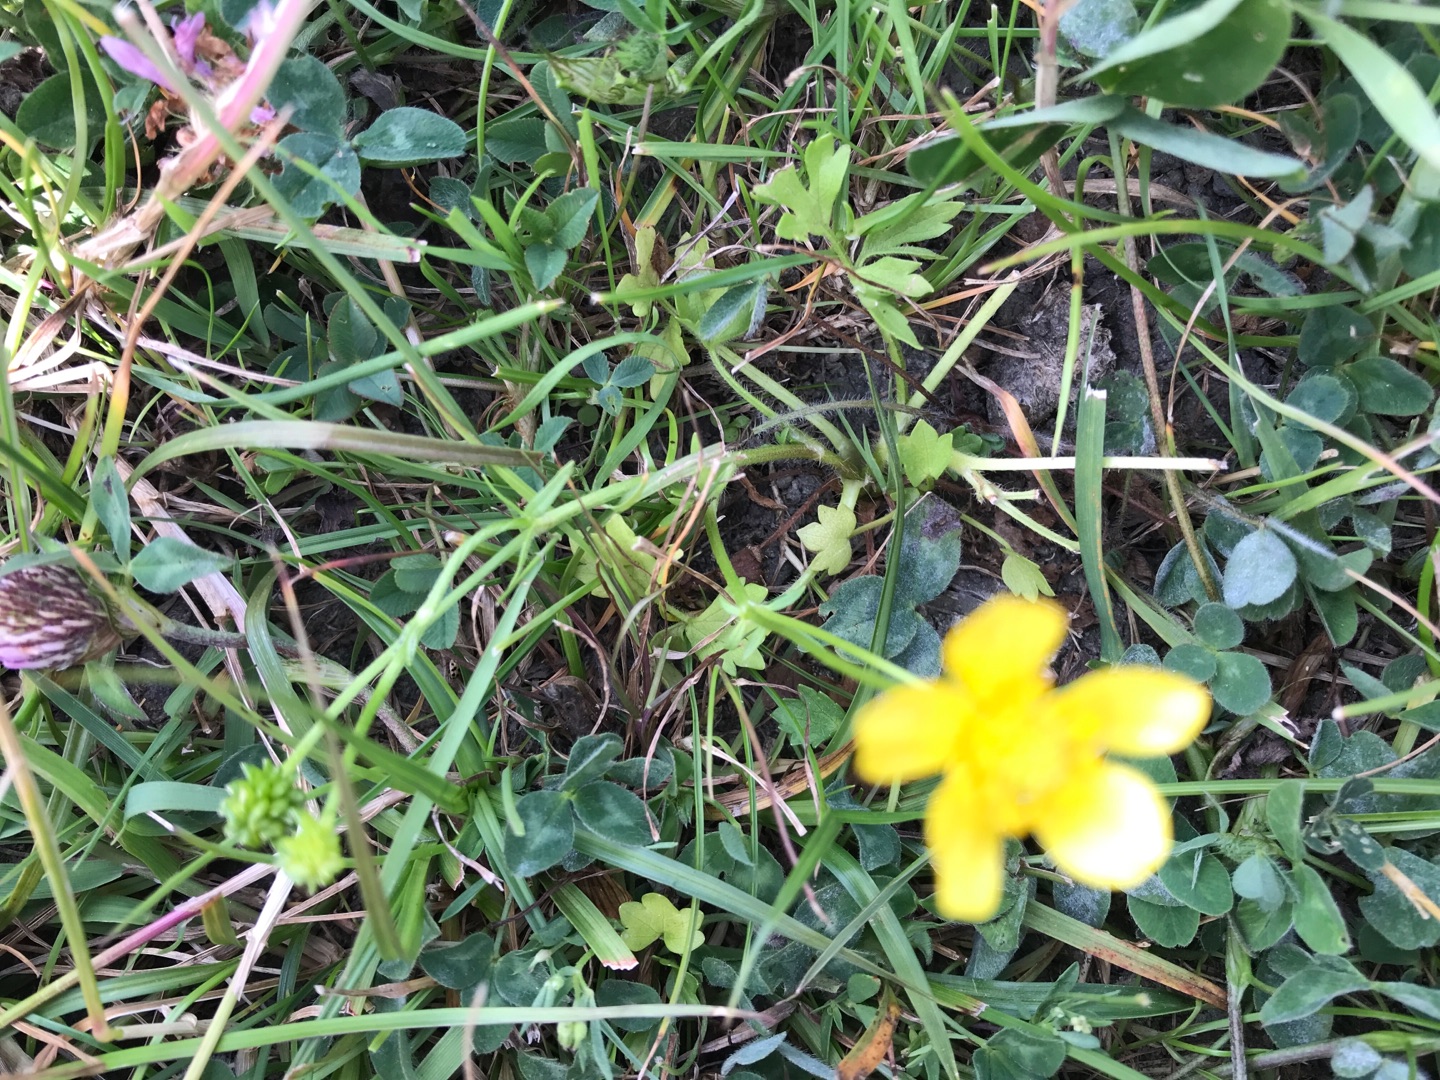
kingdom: Plantae
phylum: Tracheophyta
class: Magnoliopsida
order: Ranunculales
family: Ranunculaceae
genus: Ranunculus
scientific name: Ranunculus sardous
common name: Stivhåret ranunkel
